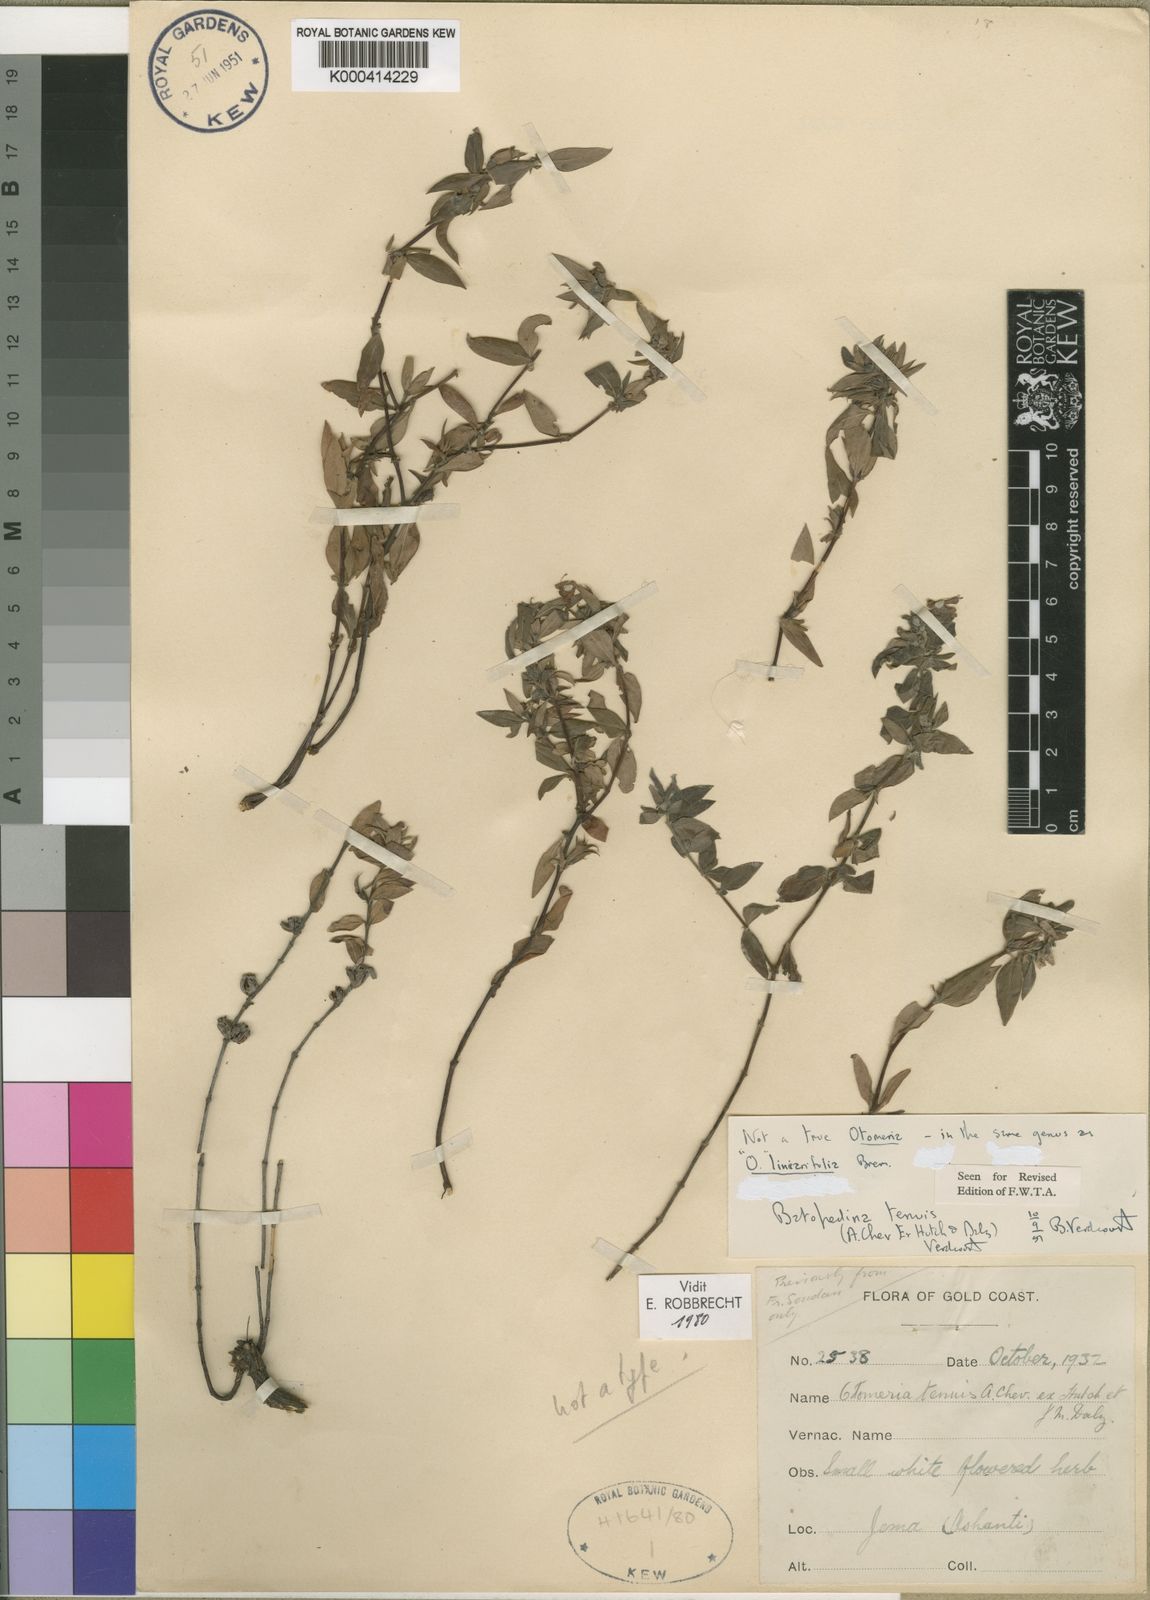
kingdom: Plantae
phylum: Tracheophyta
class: Magnoliopsida
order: Gentianales
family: Rubiaceae
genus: Batopedina
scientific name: Batopedina tenuis
